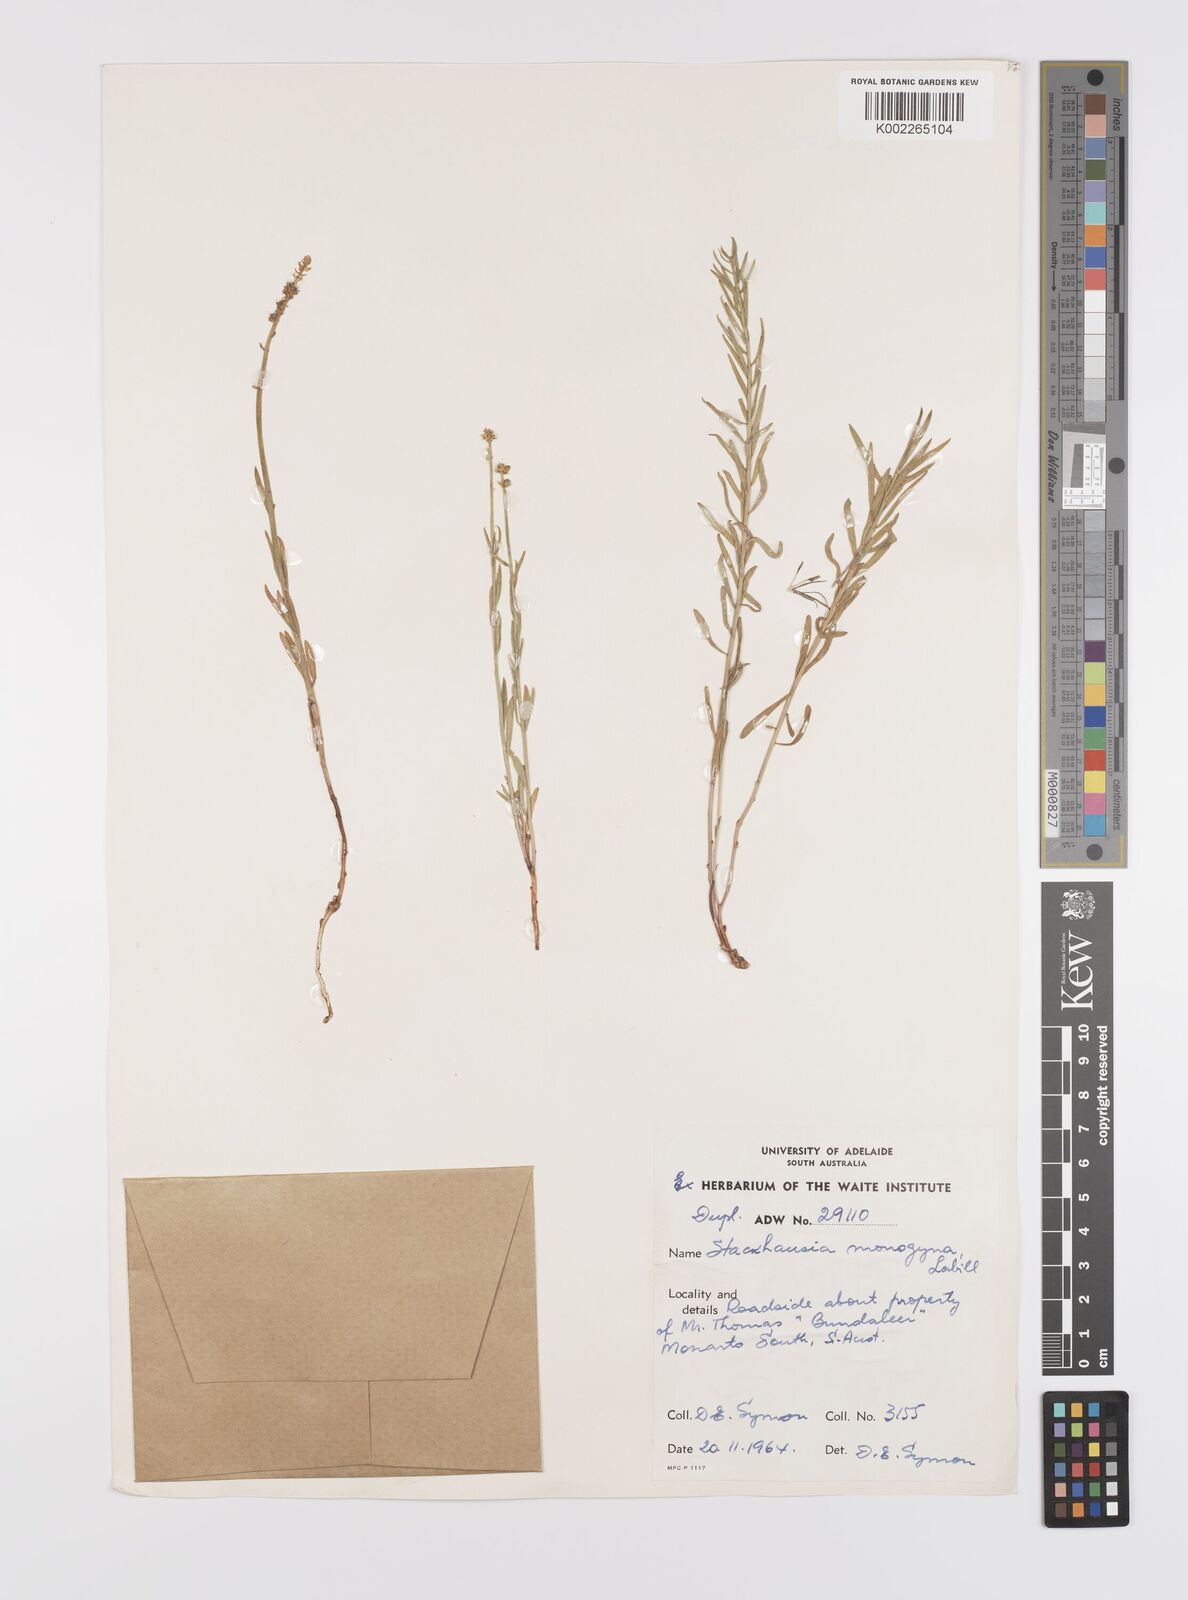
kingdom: Plantae
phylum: Tracheophyta
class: Magnoliopsida
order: Celastrales
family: Celastraceae
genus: Stackhousia
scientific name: Stackhousia monogyna
